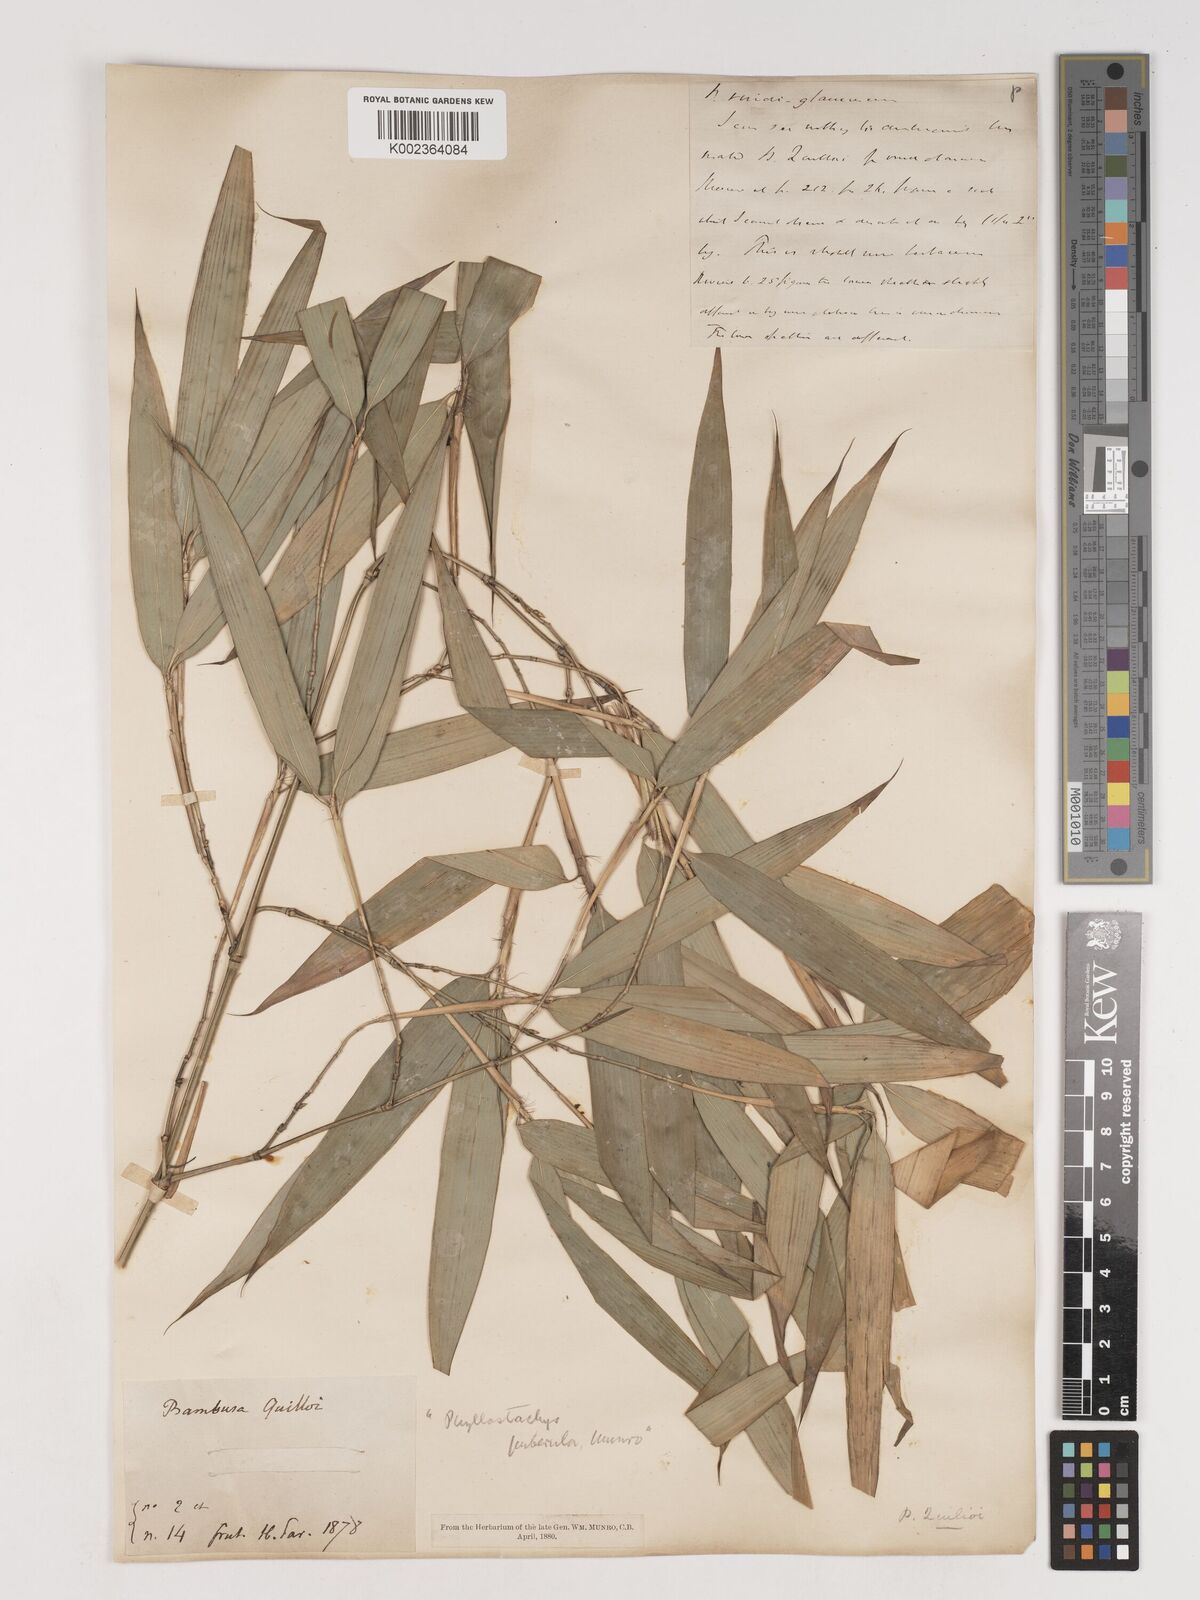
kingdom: Plantae
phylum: Tracheophyta
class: Liliopsida
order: Poales
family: Poaceae
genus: Phyllostachys
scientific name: Phyllostachys viridiglaucescens
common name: Greenwax golden bamboo
